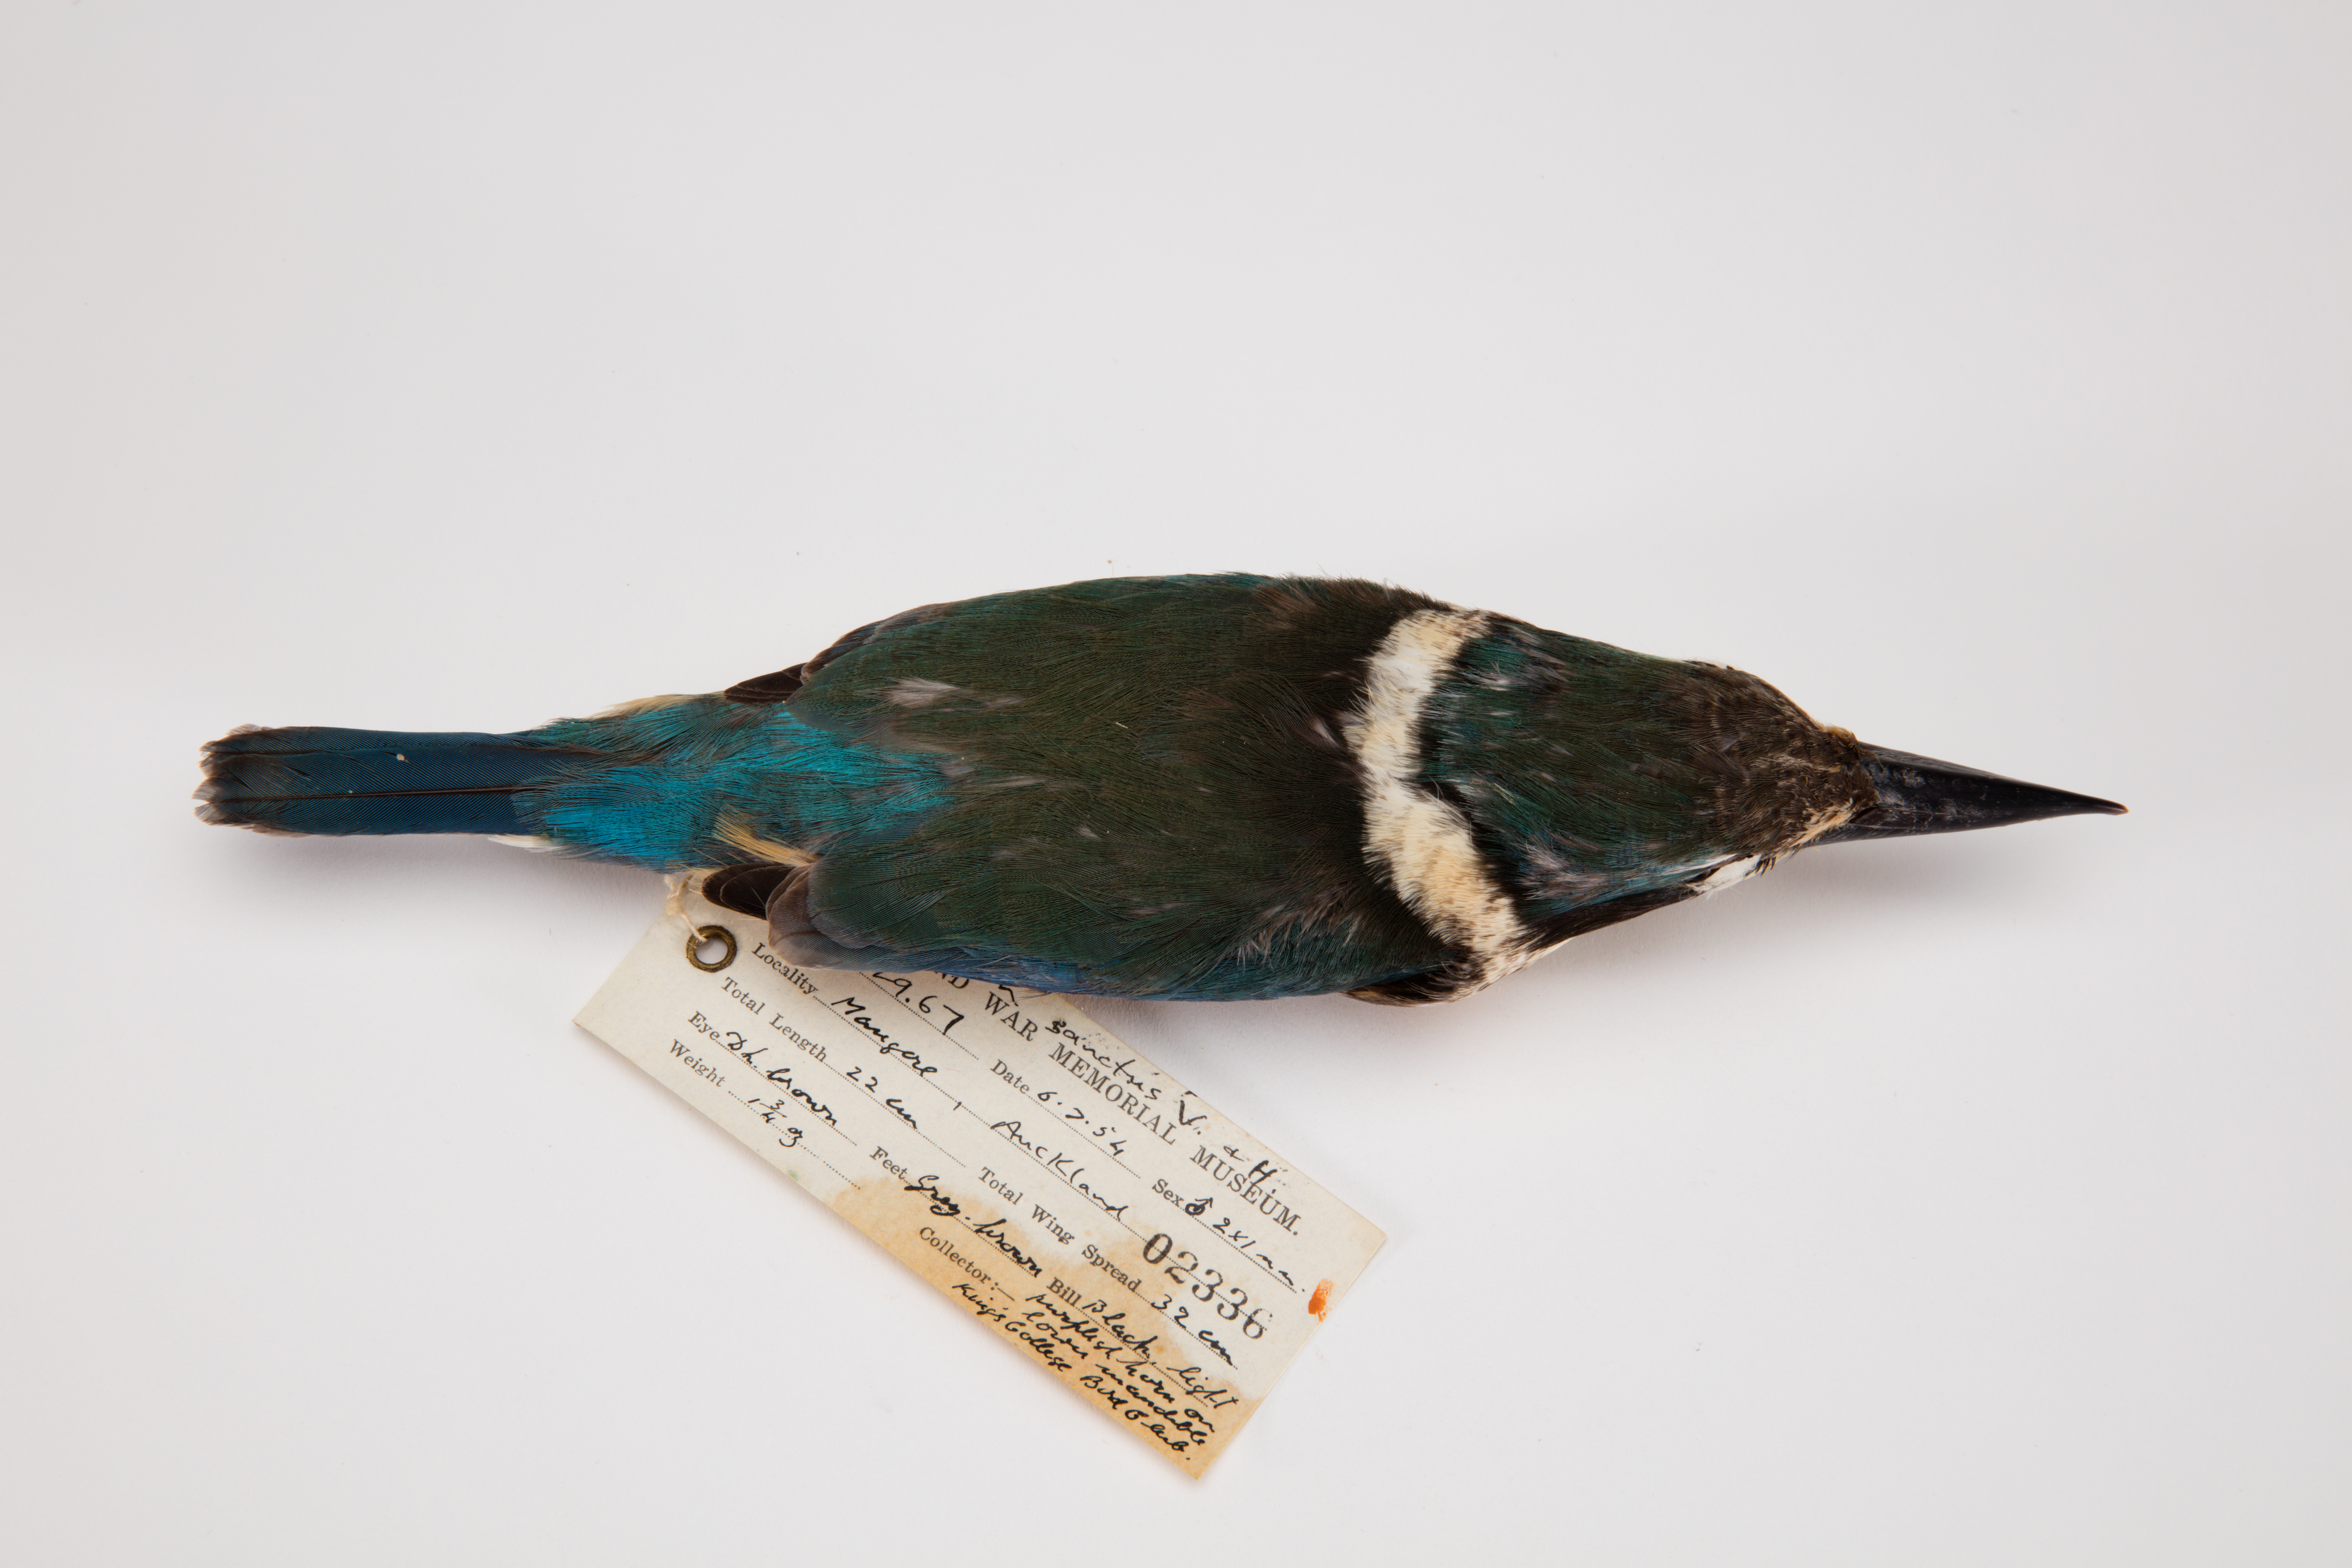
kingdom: Animalia
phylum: Chordata
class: Aves
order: Coraciiformes
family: Alcedinidae
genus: Todiramphus
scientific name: Todiramphus sanctus
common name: Sacred kingfisher
